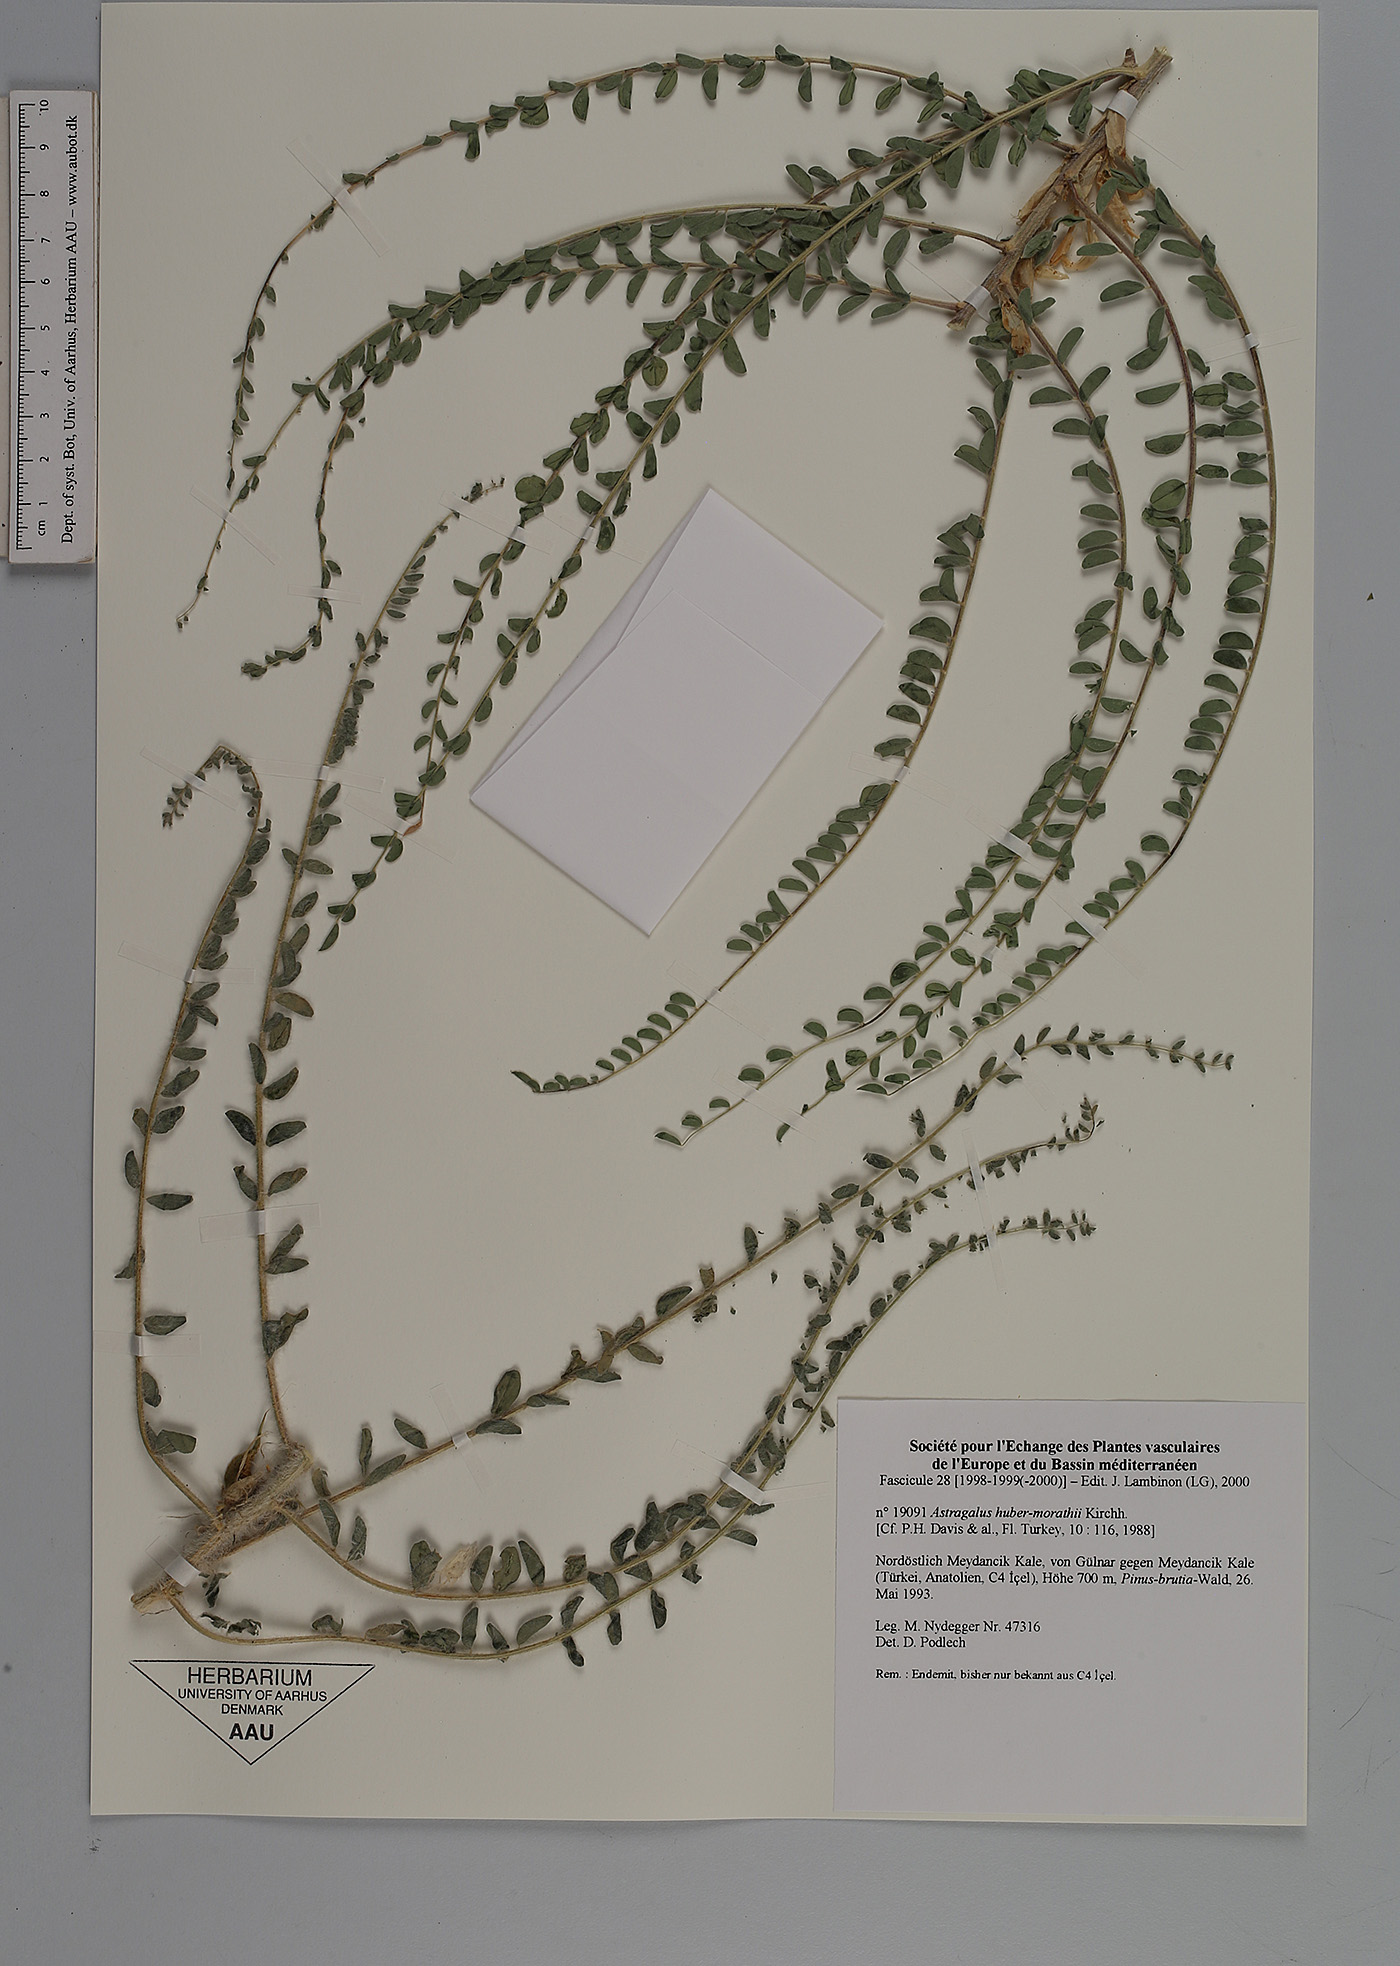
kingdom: Plantae
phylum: Tracheophyta
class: Magnoliopsida
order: Fabales
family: Fabaceae
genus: Astragalus
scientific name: Astragalus huber-morathii
